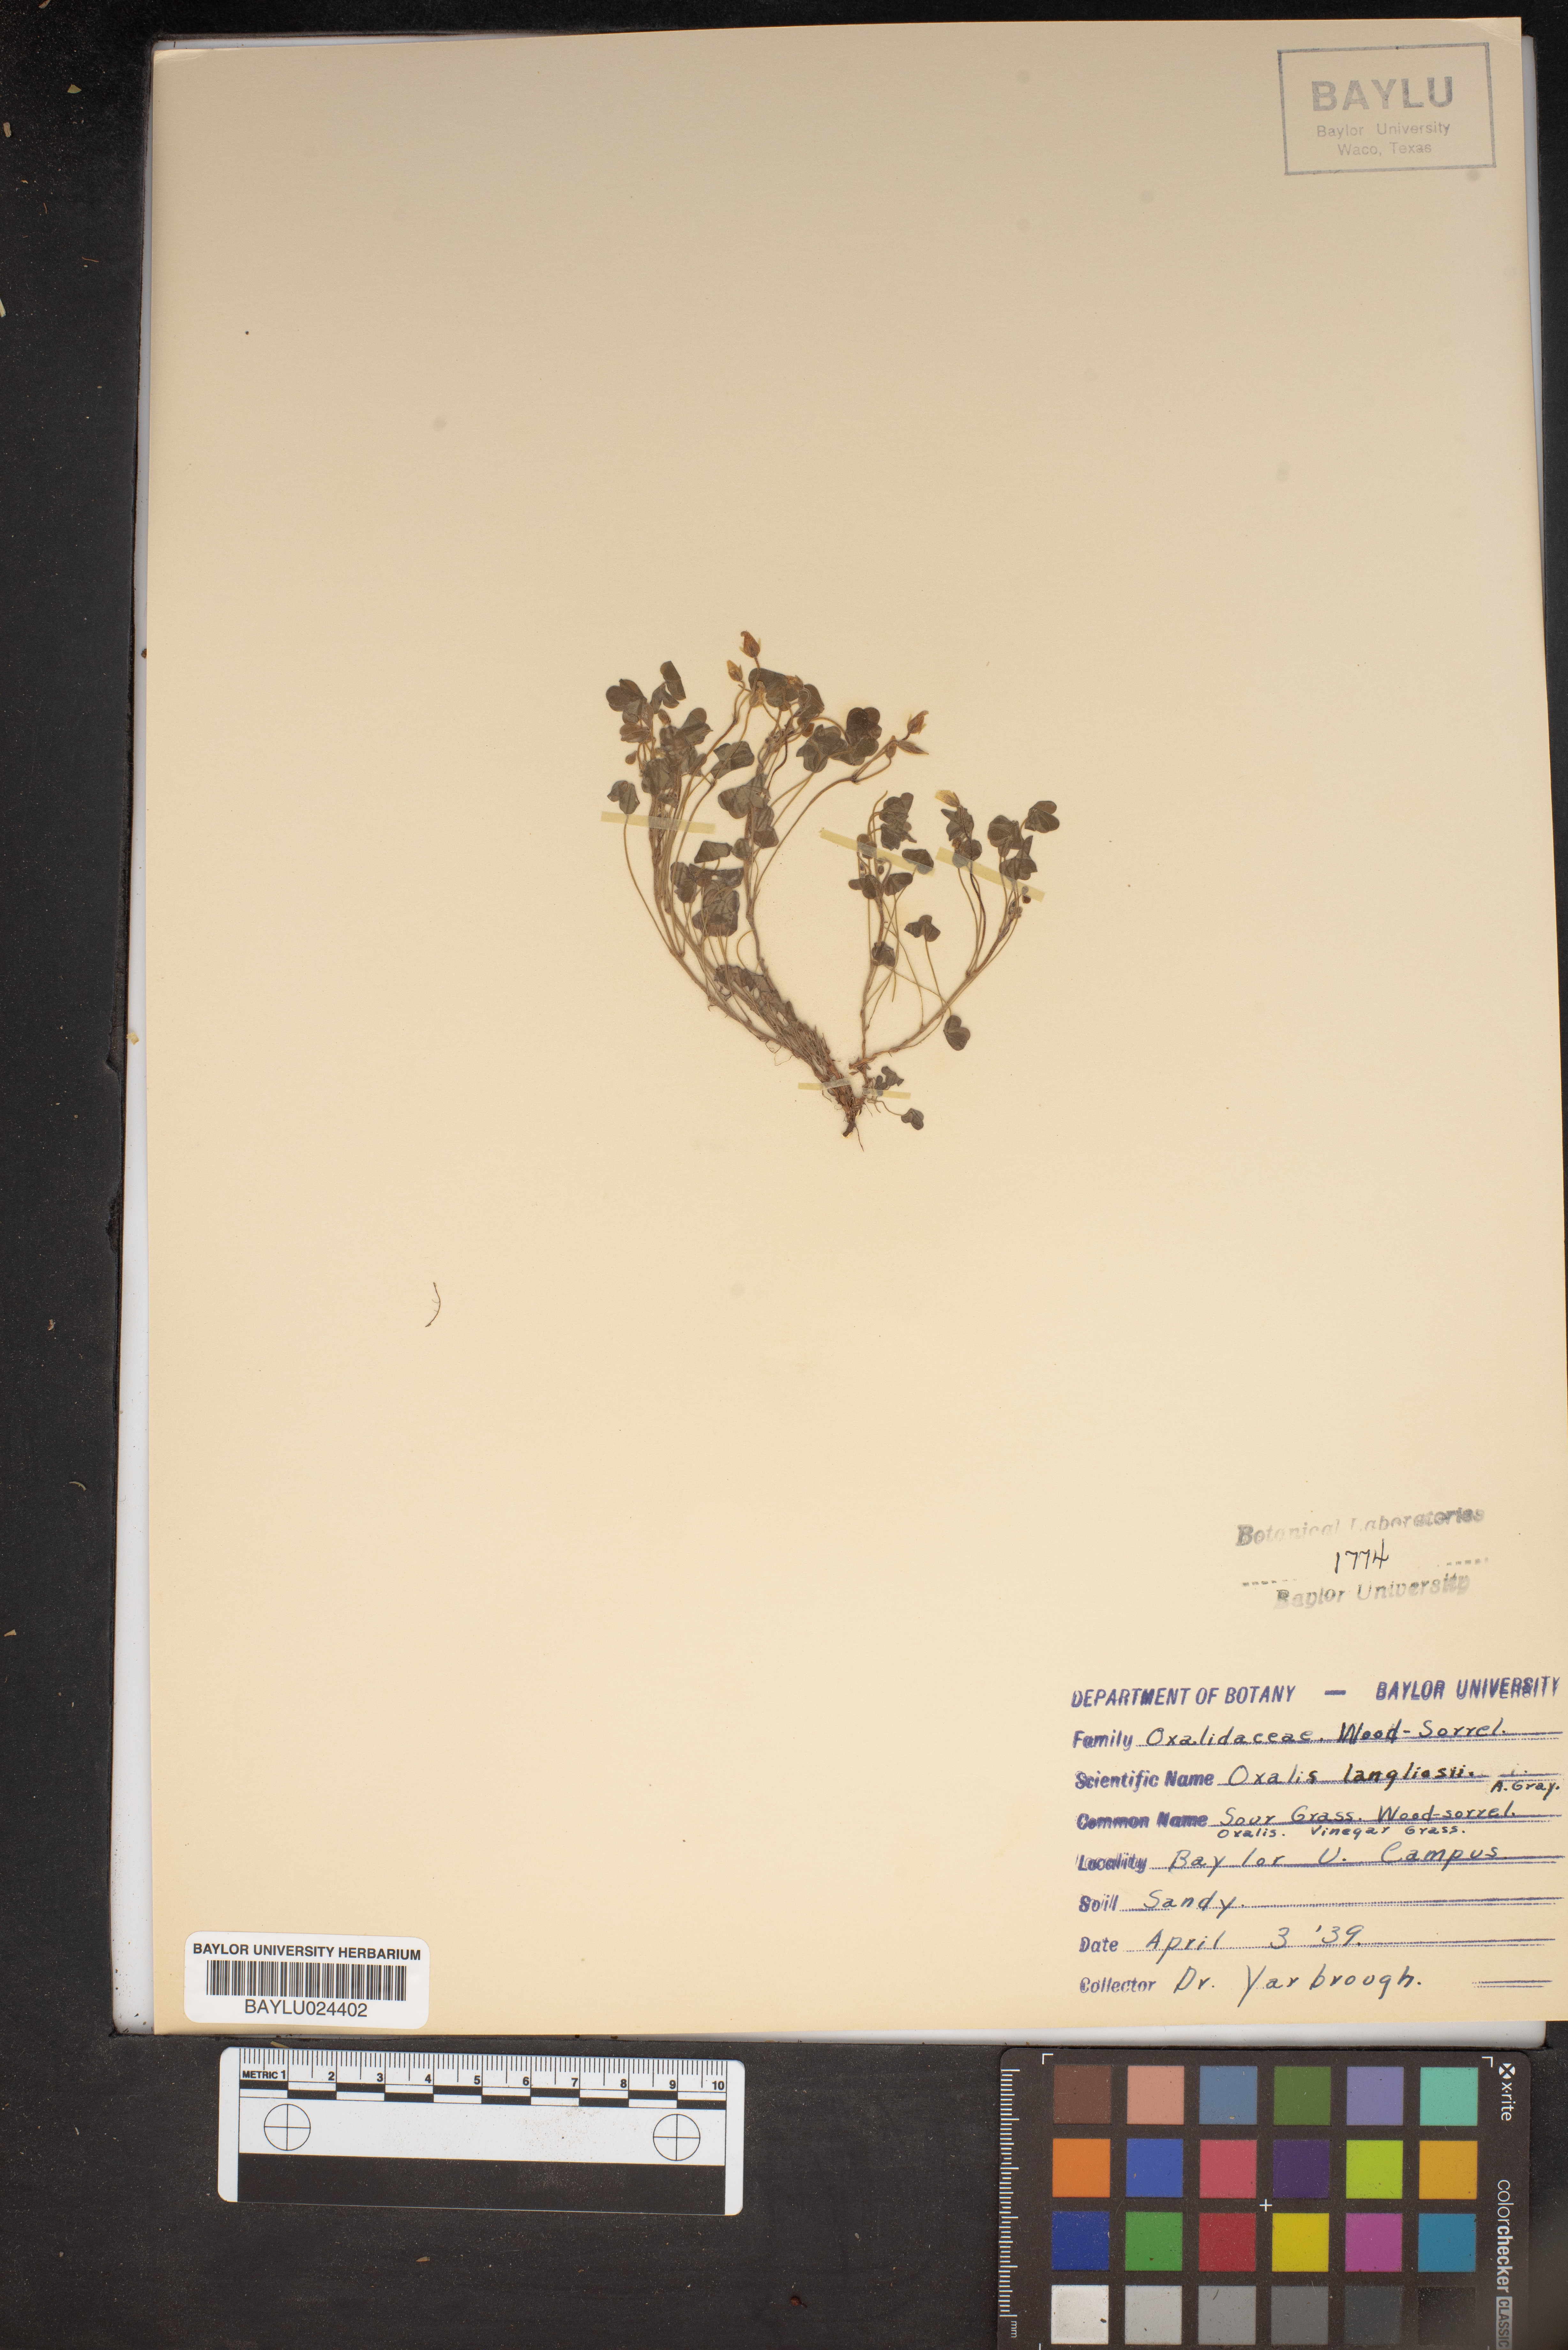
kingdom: Plantae
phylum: Tracheophyta
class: Magnoliopsida
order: Oxalidales
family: Oxalidaceae
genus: Oxalis
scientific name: Oxalis corniculata
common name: Procumbent yellow-sorrel
